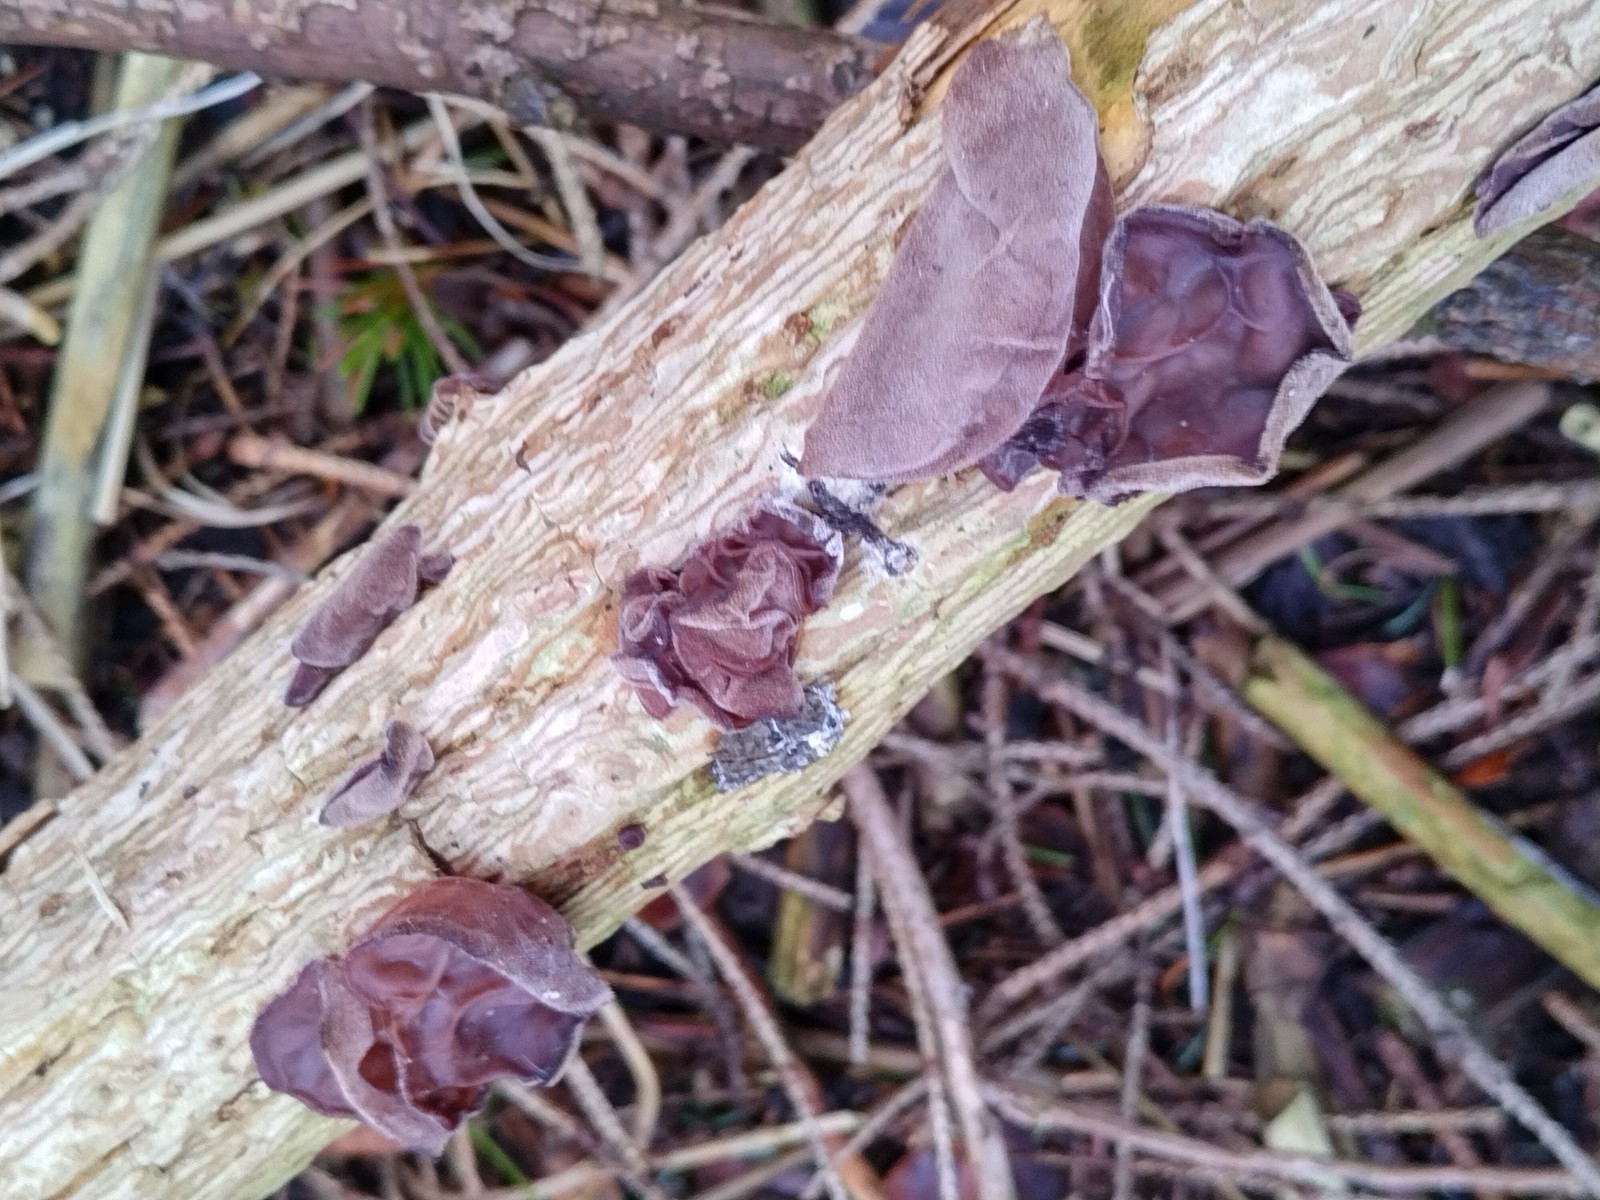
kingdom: Fungi
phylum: Basidiomycota
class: Agaricomycetes
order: Auriculariales
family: Auriculariaceae
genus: Auricularia
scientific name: Auricularia auricula-judae
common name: almindelig judasøre
